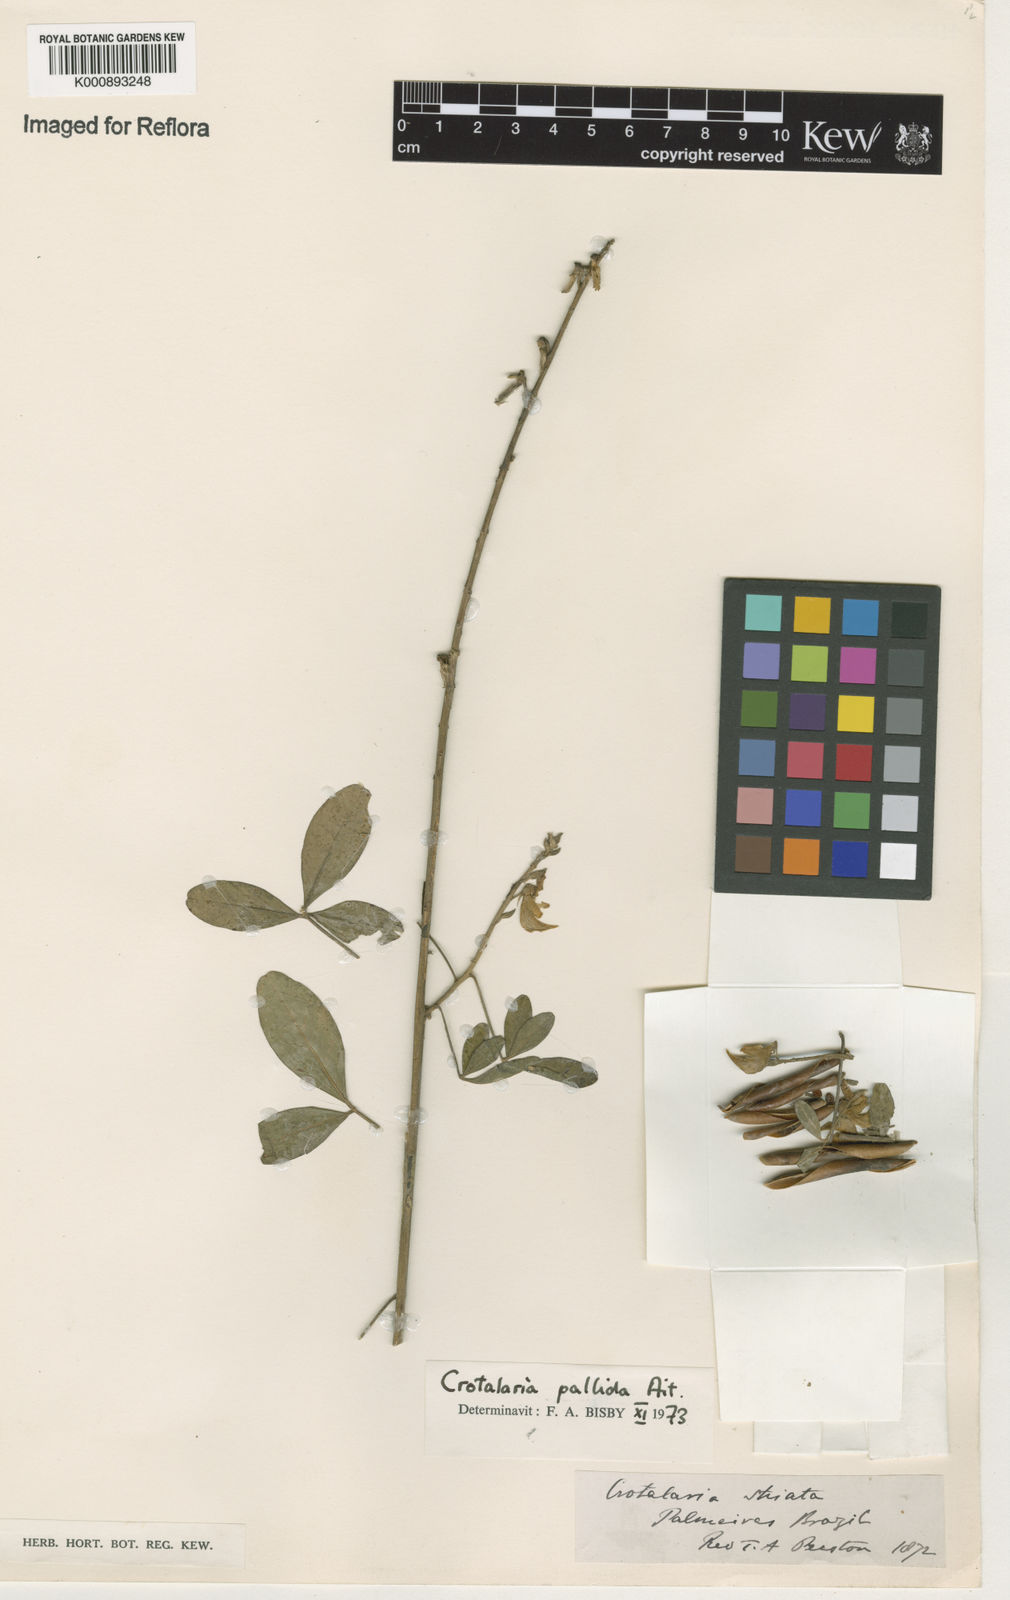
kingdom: Plantae
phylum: Tracheophyta
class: Magnoliopsida
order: Fabales
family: Fabaceae
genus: Crotalaria
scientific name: Crotalaria pallida
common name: Smooth rattlebox
